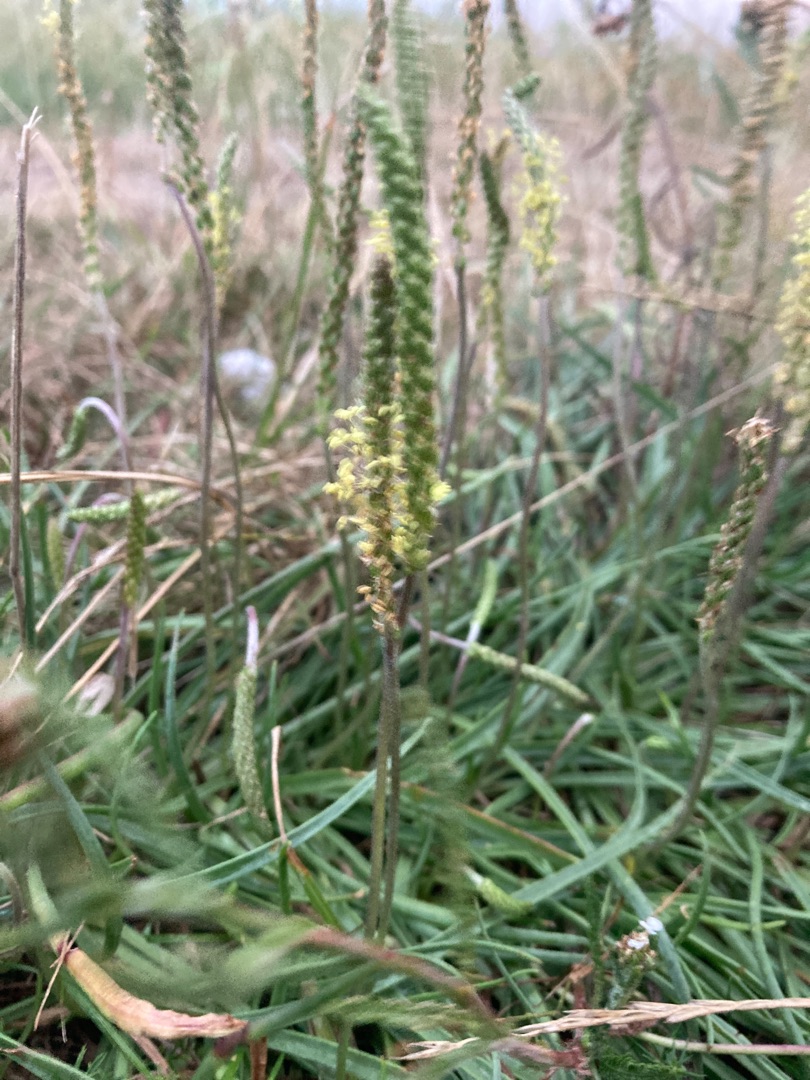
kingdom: Plantae
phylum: Tracheophyta
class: Magnoliopsida
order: Lamiales
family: Plantaginaceae
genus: Plantago
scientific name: Plantago maritima
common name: Strand-vejbred
